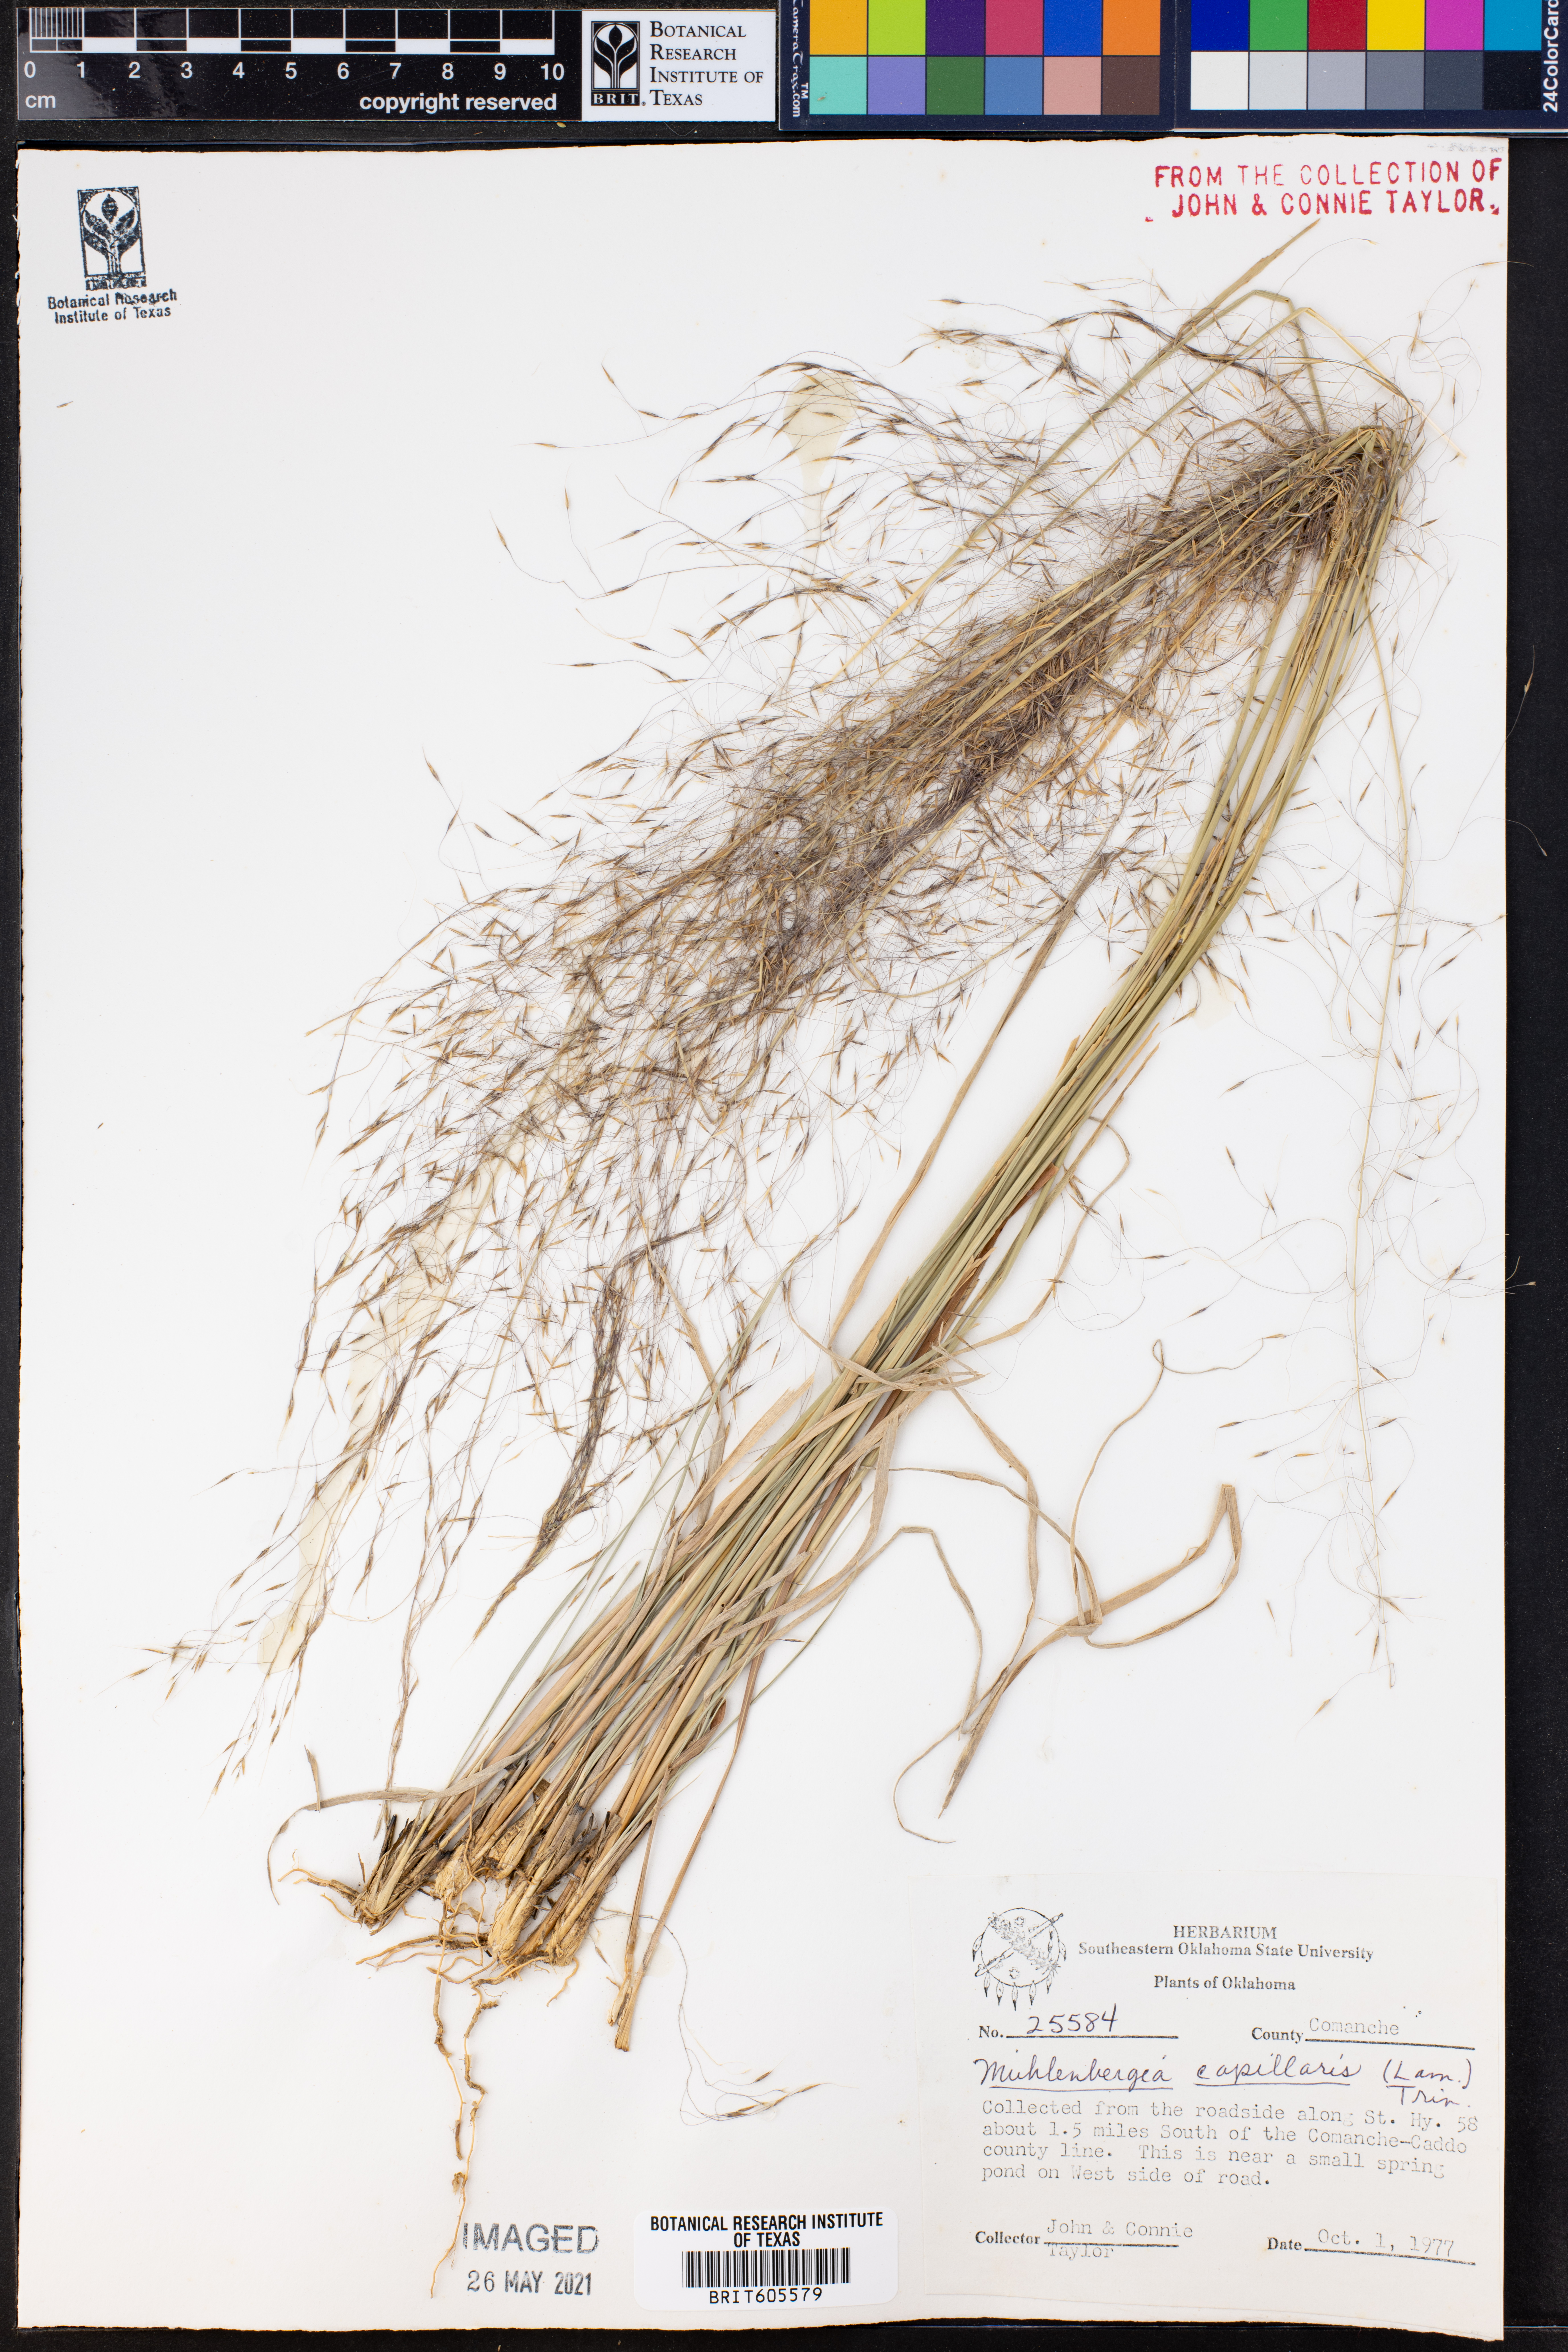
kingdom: Plantae
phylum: Tracheophyta
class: Liliopsida
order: Poales
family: Poaceae
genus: Muhlenbergia
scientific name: Muhlenbergia capillaris
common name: Purple grass
